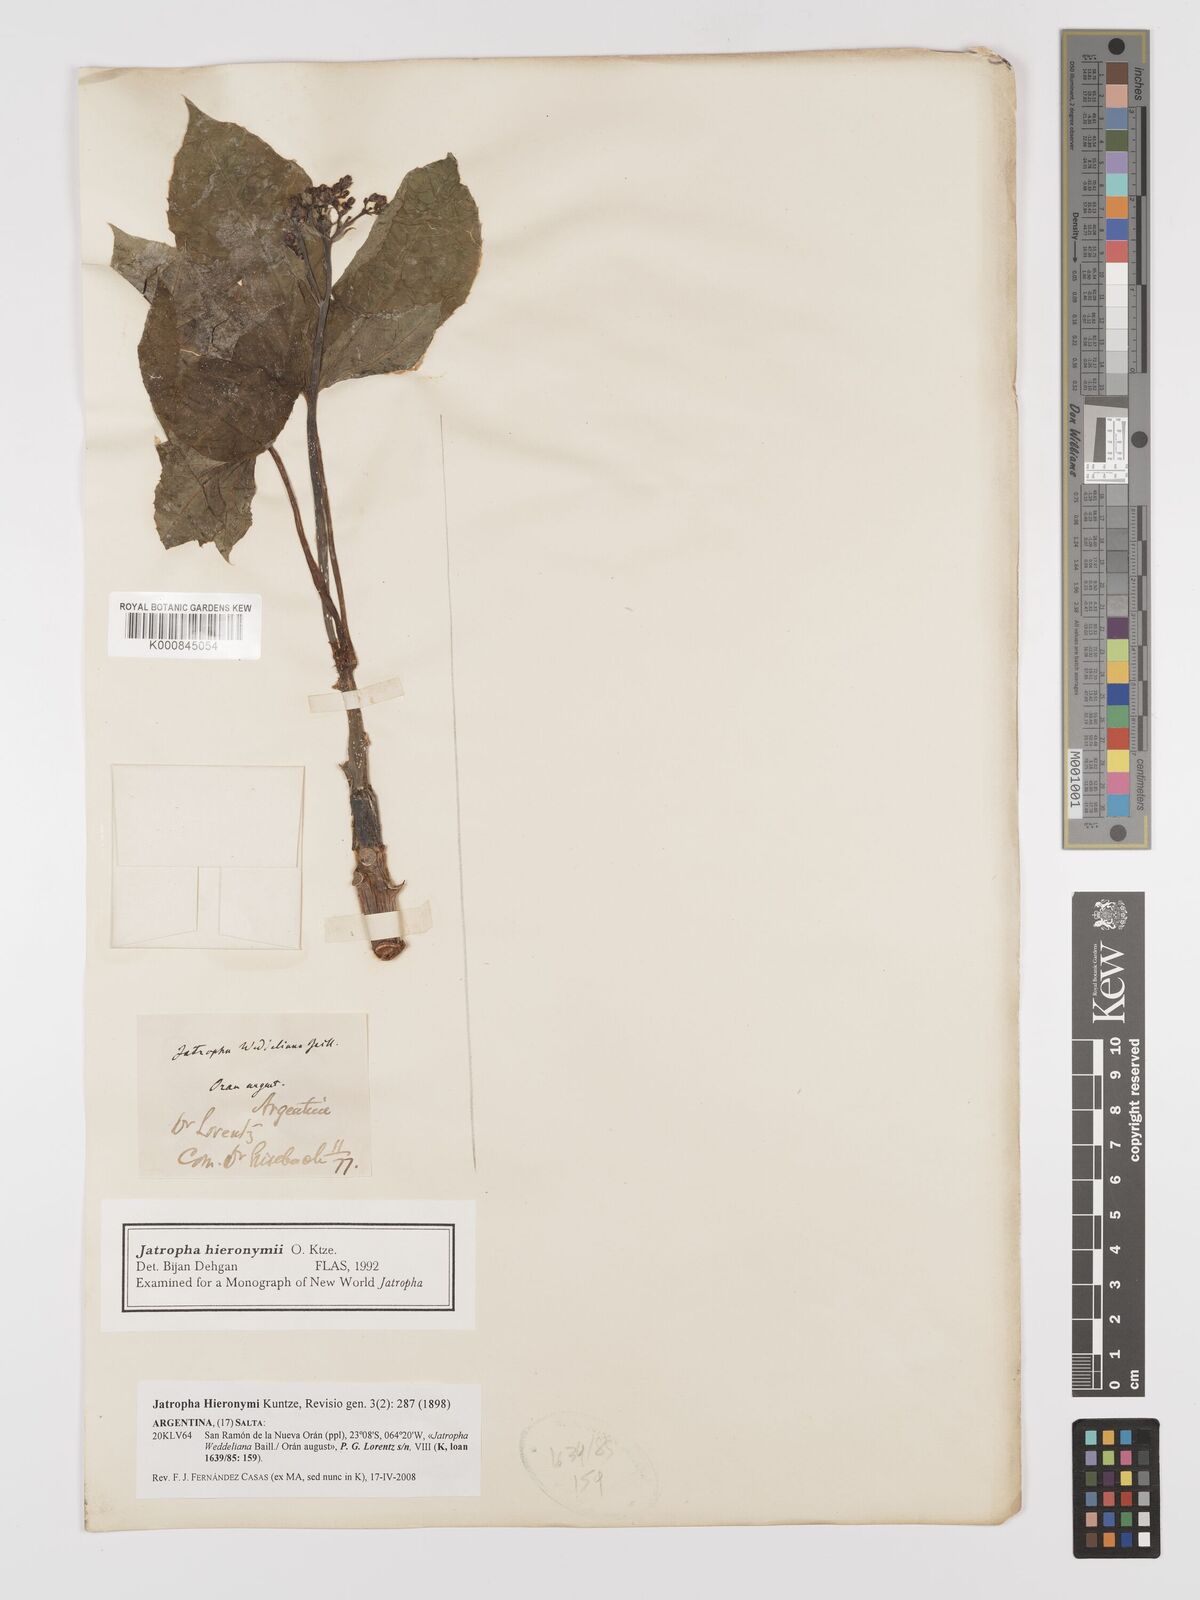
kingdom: Plantae
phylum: Tracheophyta
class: Magnoliopsida
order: Malpighiales
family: Euphorbiaceae
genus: Jatropha
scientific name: Jatropha hieronymi
